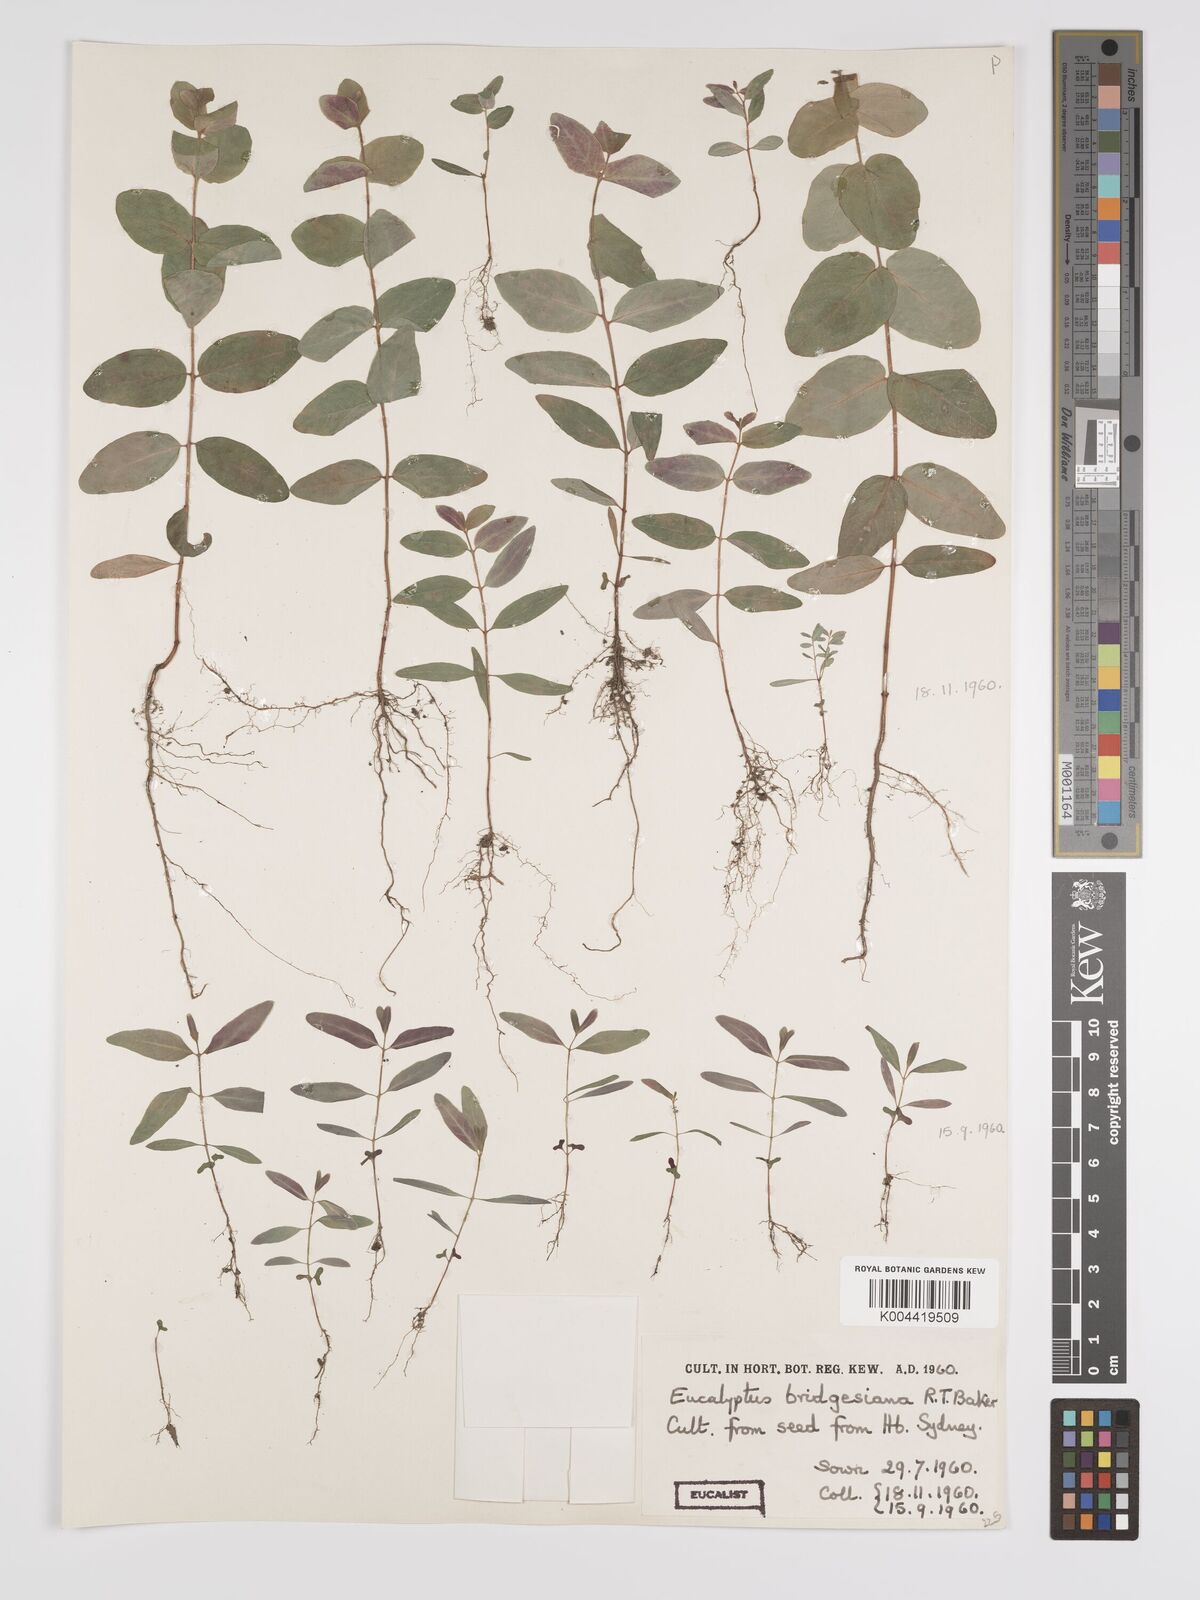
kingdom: Plantae
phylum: Tracheophyta
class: Magnoliopsida
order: Myrtales
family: Myrtaceae
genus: Eucalyptus
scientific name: Eucalyptus bridgesiana
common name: Applebox
